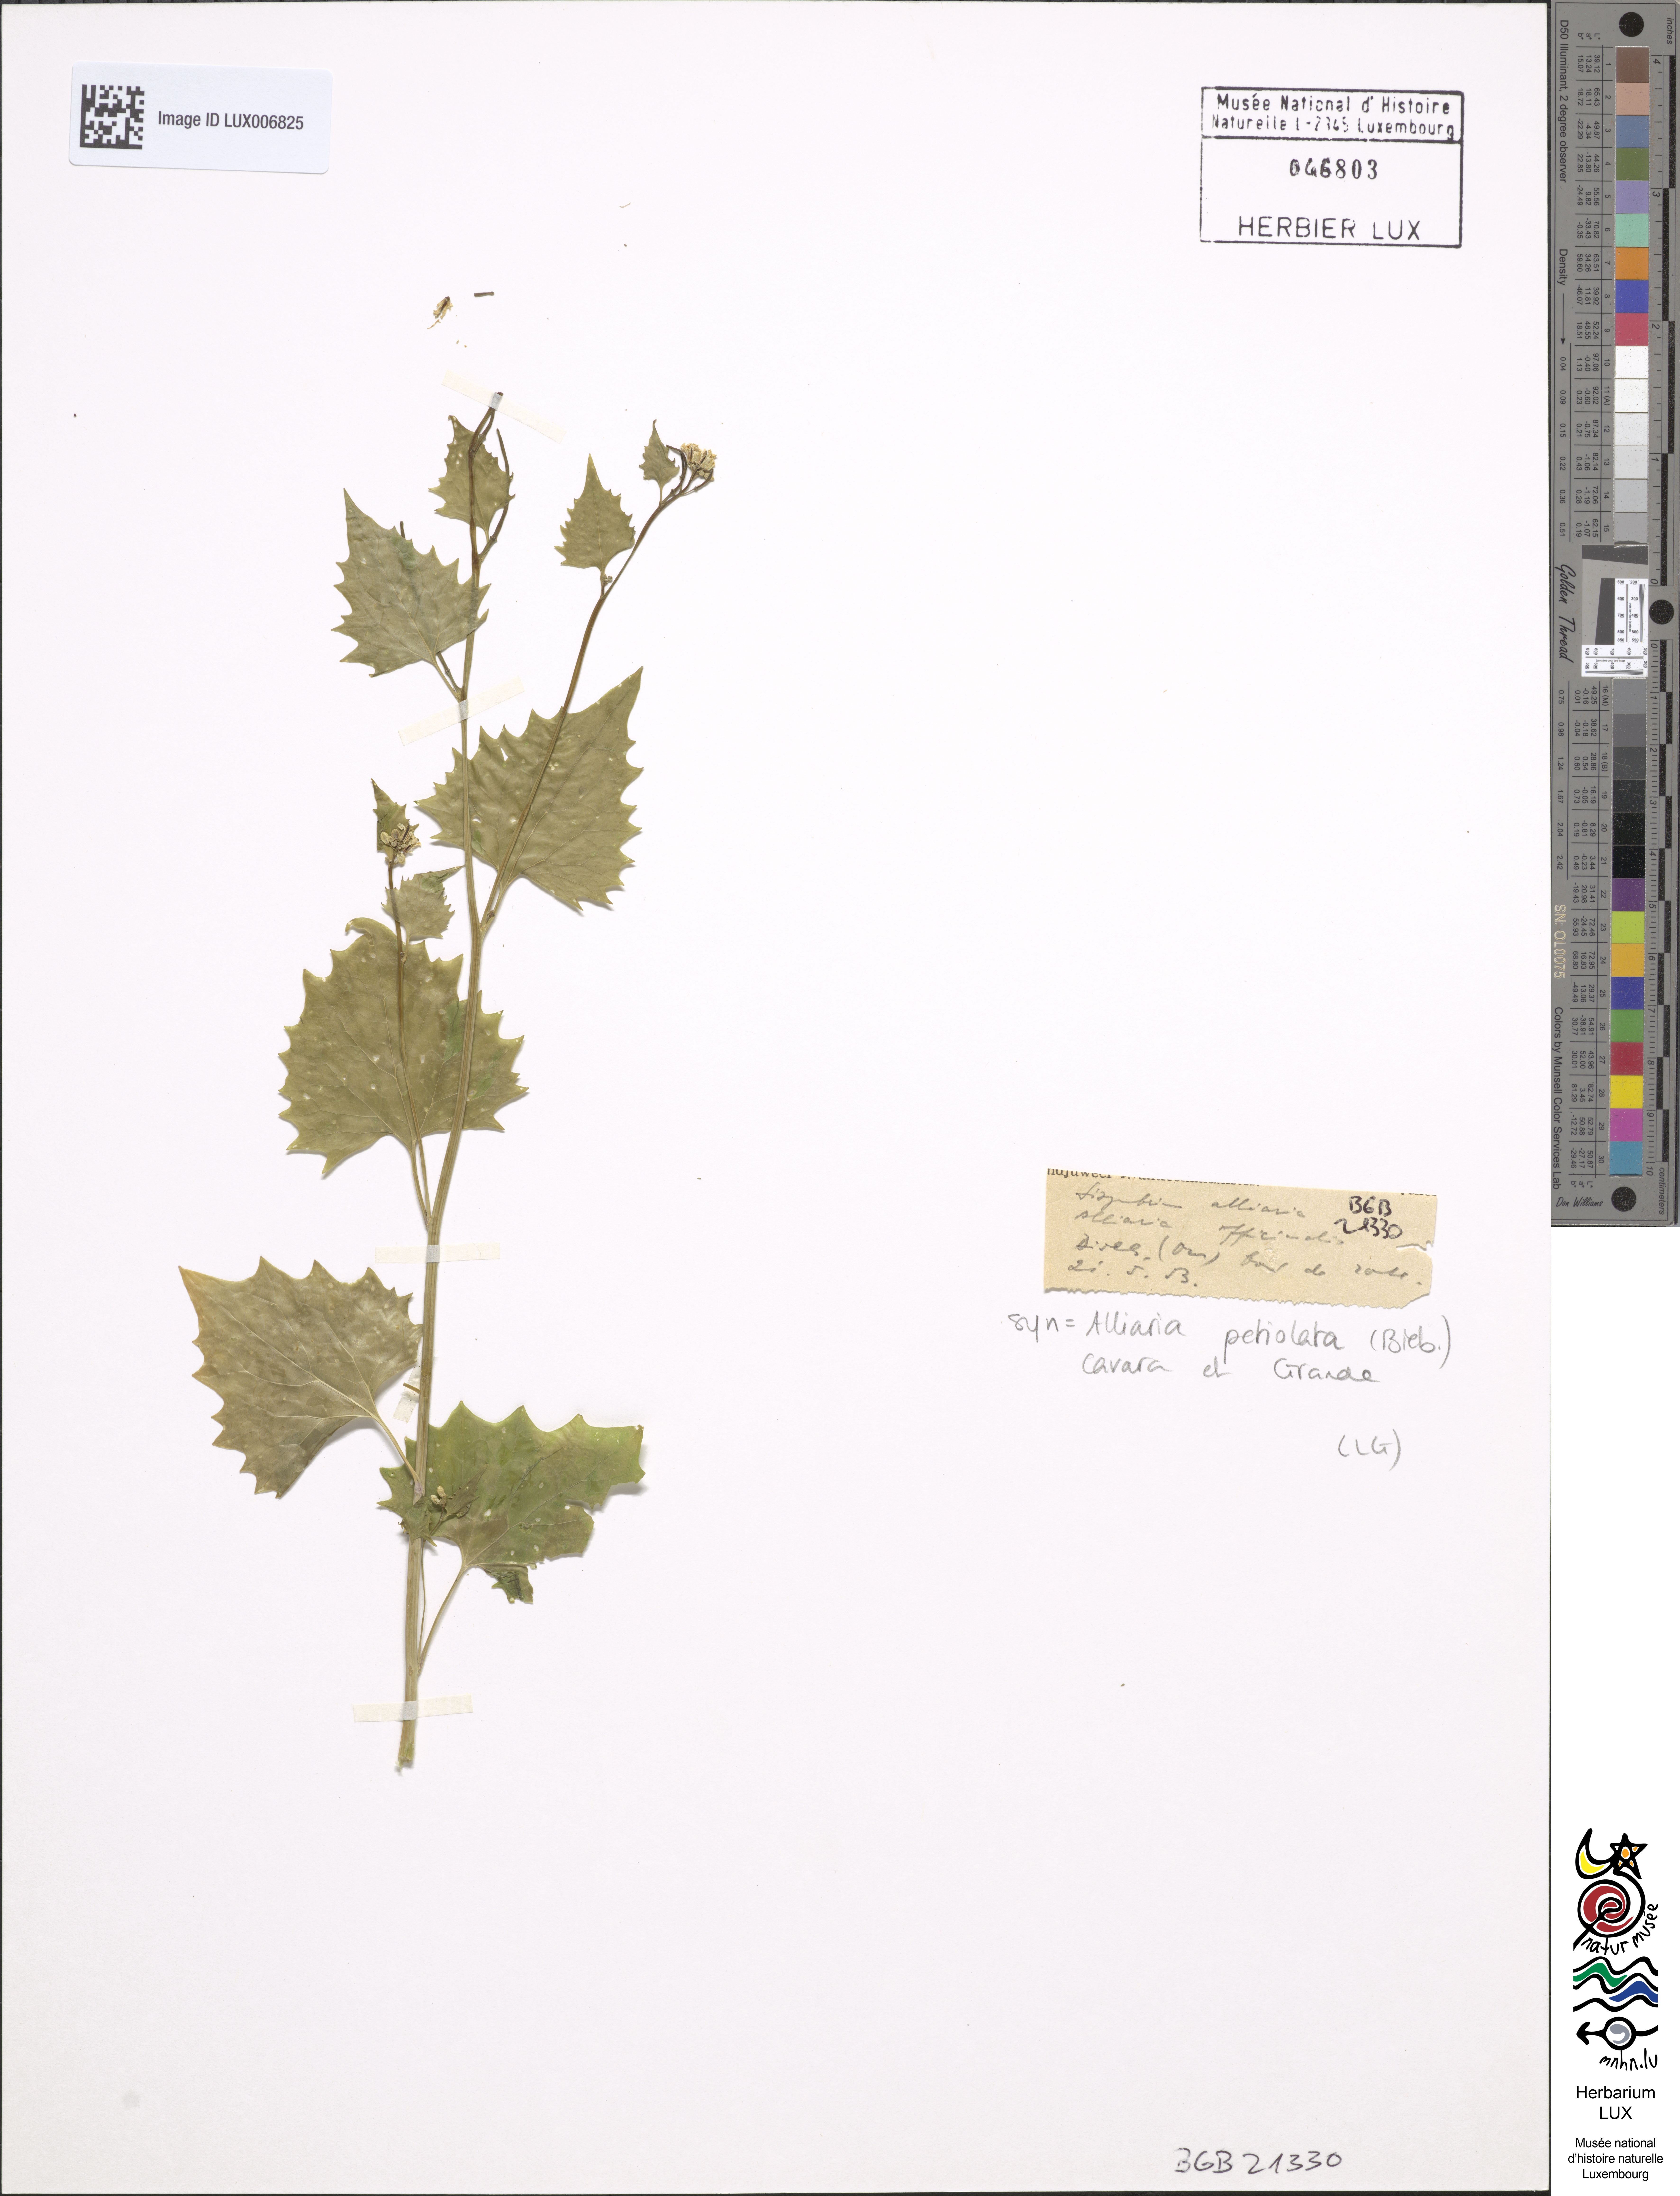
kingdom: Plantae
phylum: Tracheophyta
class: Magnoliopsida
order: Brassicales
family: Brassicaceae
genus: Alliaria
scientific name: Alliaria petiolata
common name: Garlic mustard
